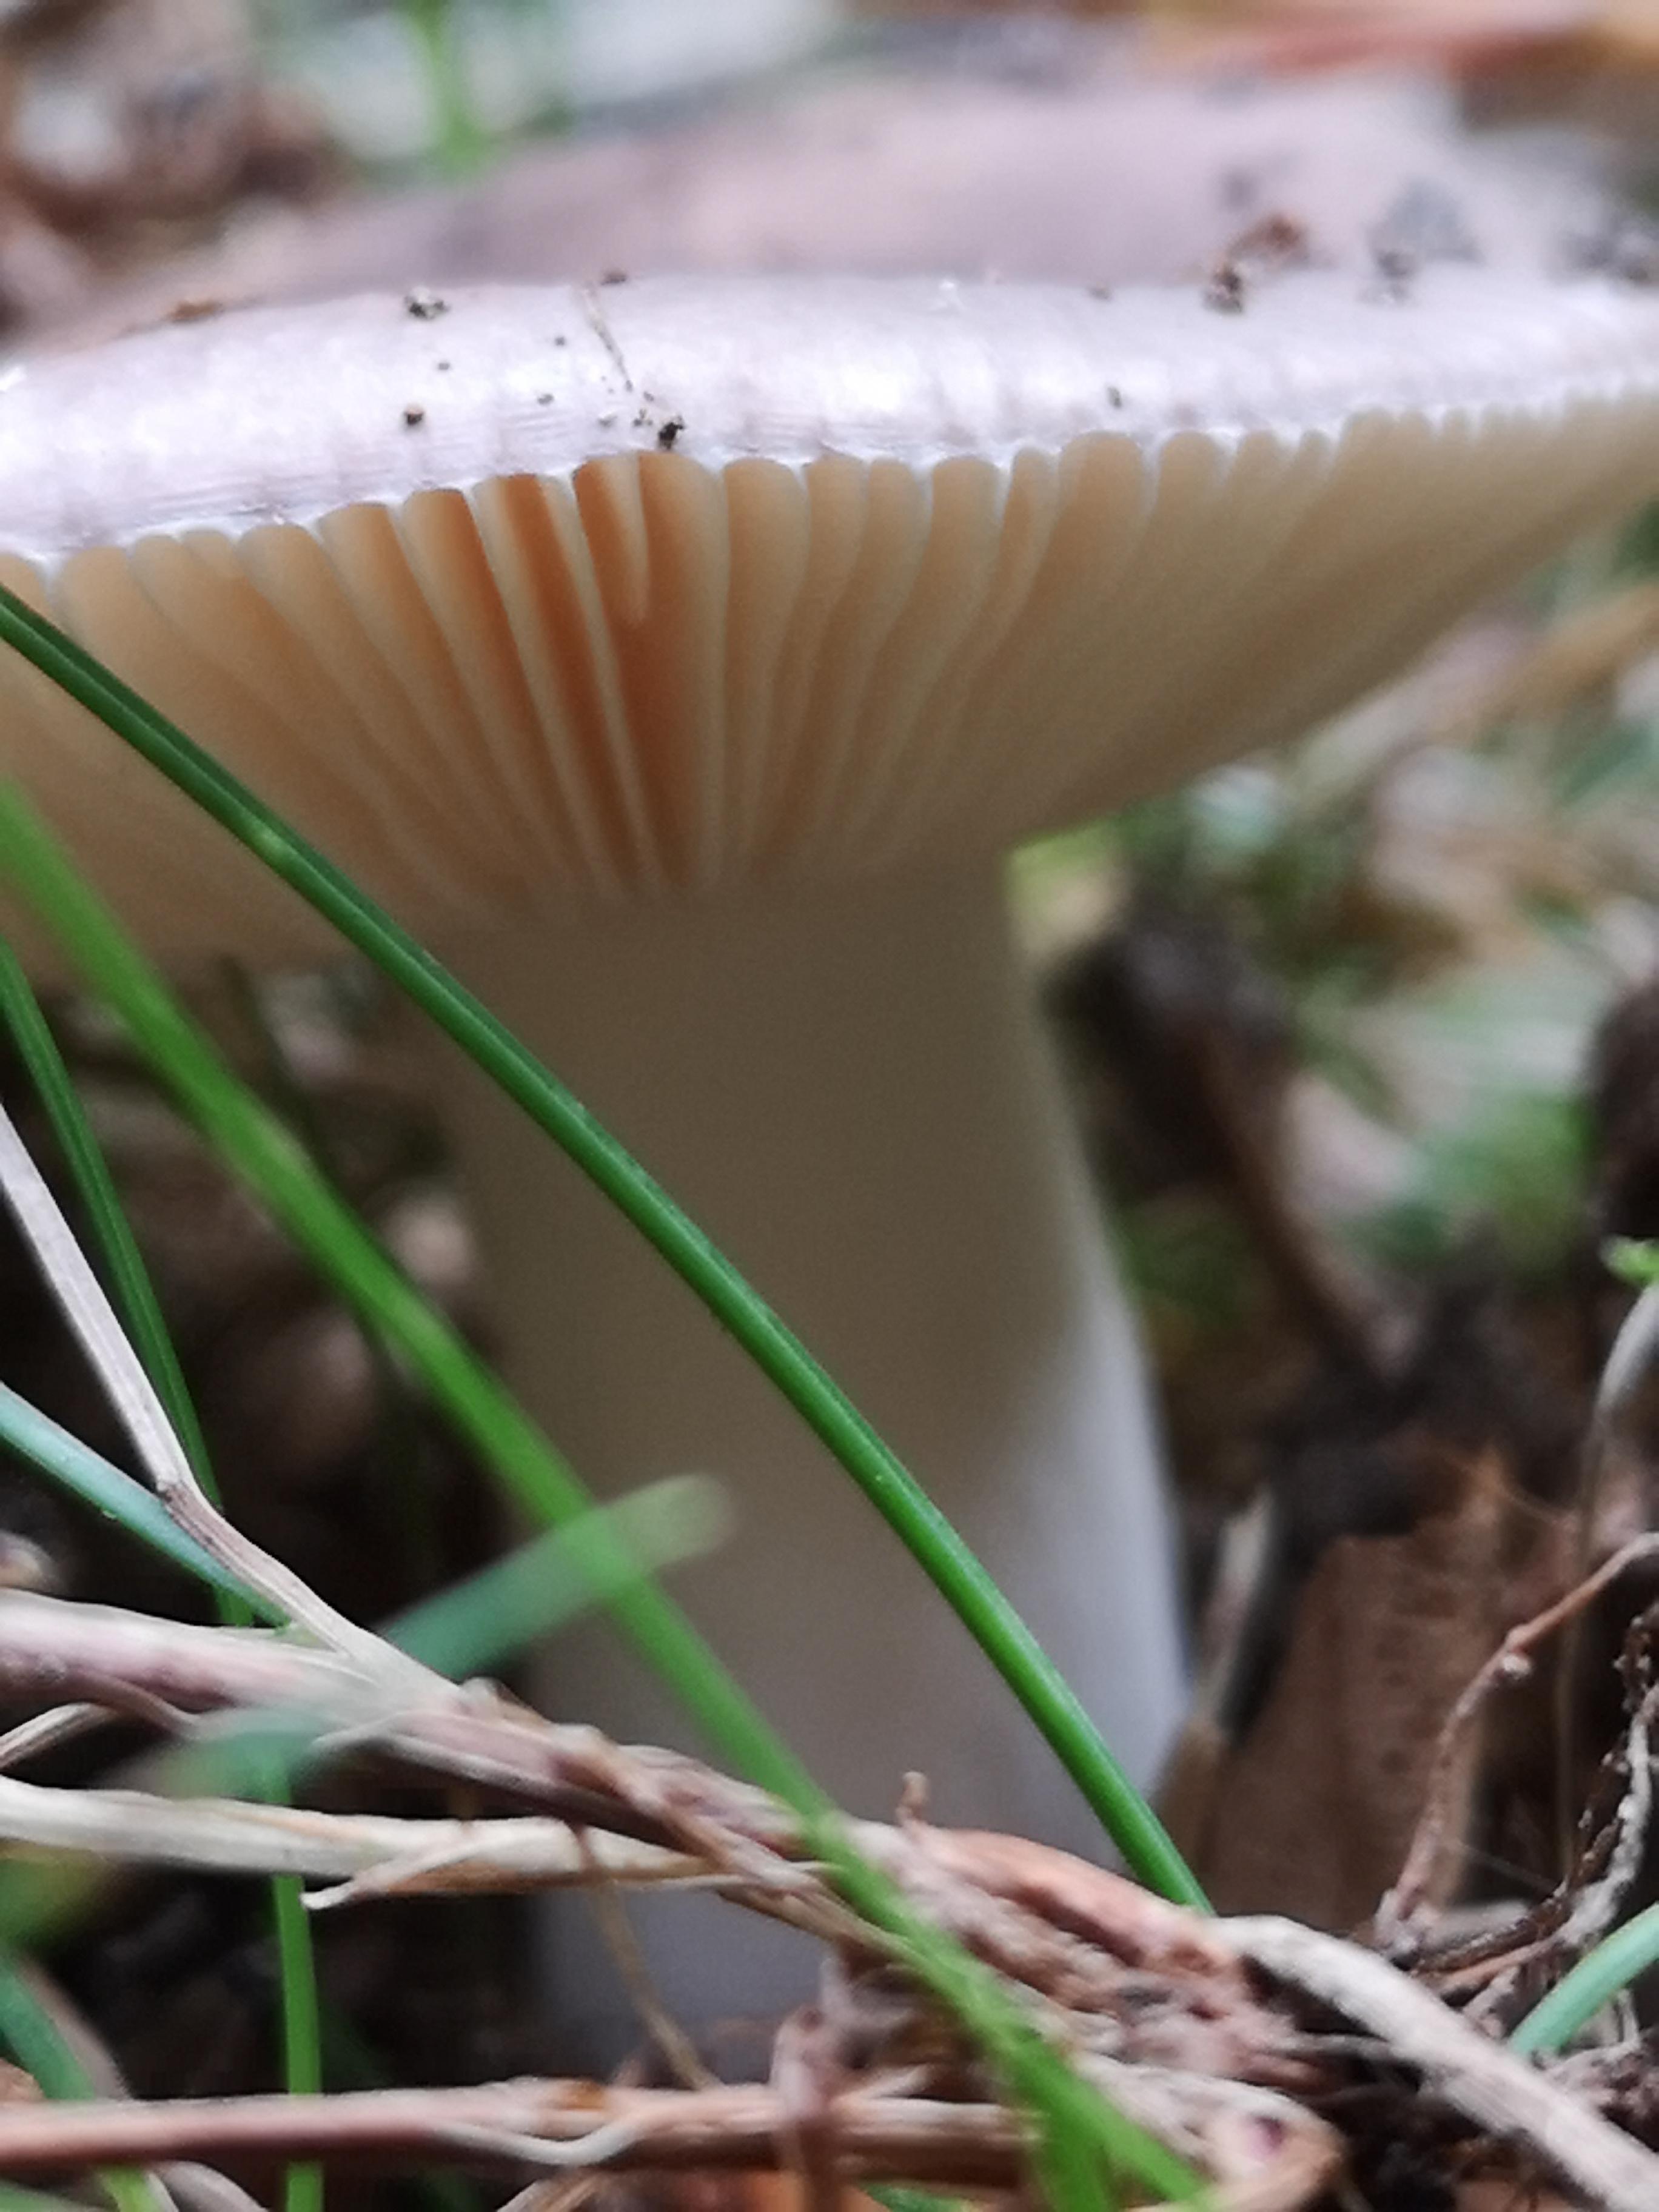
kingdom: Fungi
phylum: Basidiomycota
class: Agaricomycetes
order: Russulales
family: Russulaceae
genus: Russula
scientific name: Russula
